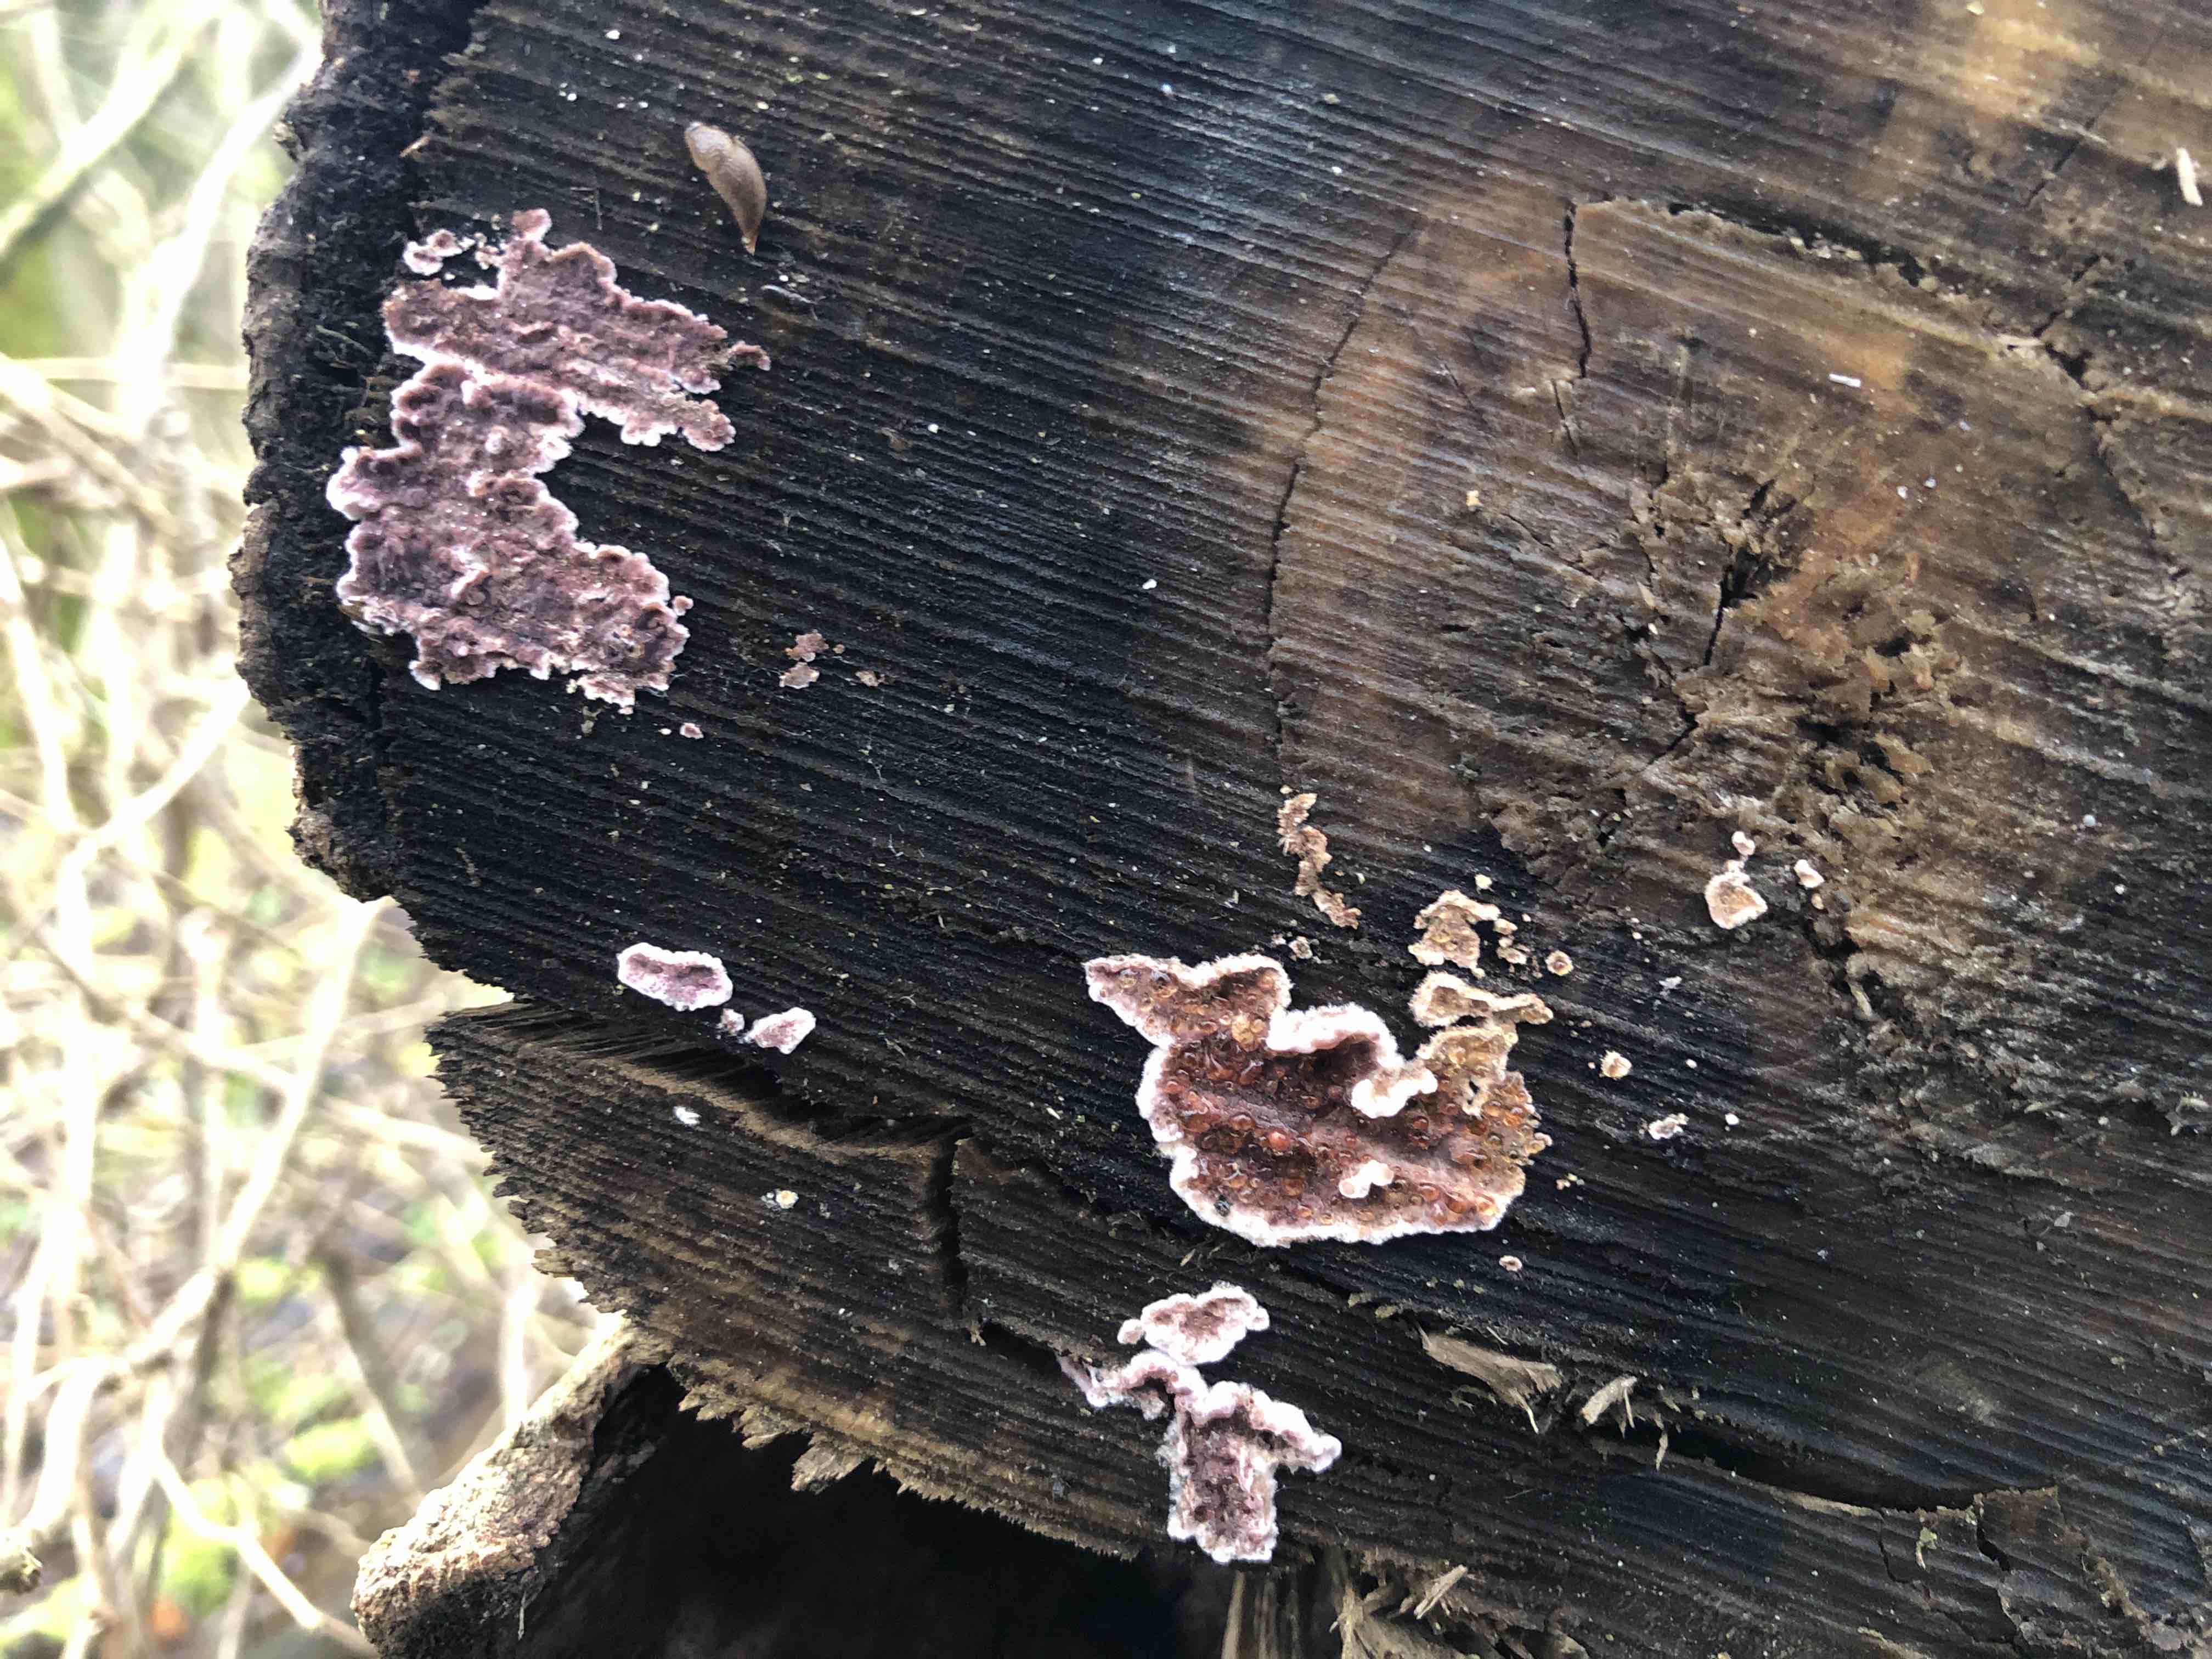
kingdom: Fungi
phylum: Basidiomycota
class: Agaricomycetes
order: Agaricales
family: Cyphellaceae
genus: Chondrostereum
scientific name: Chondrostereum purpureum
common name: purpurlædersvamp
